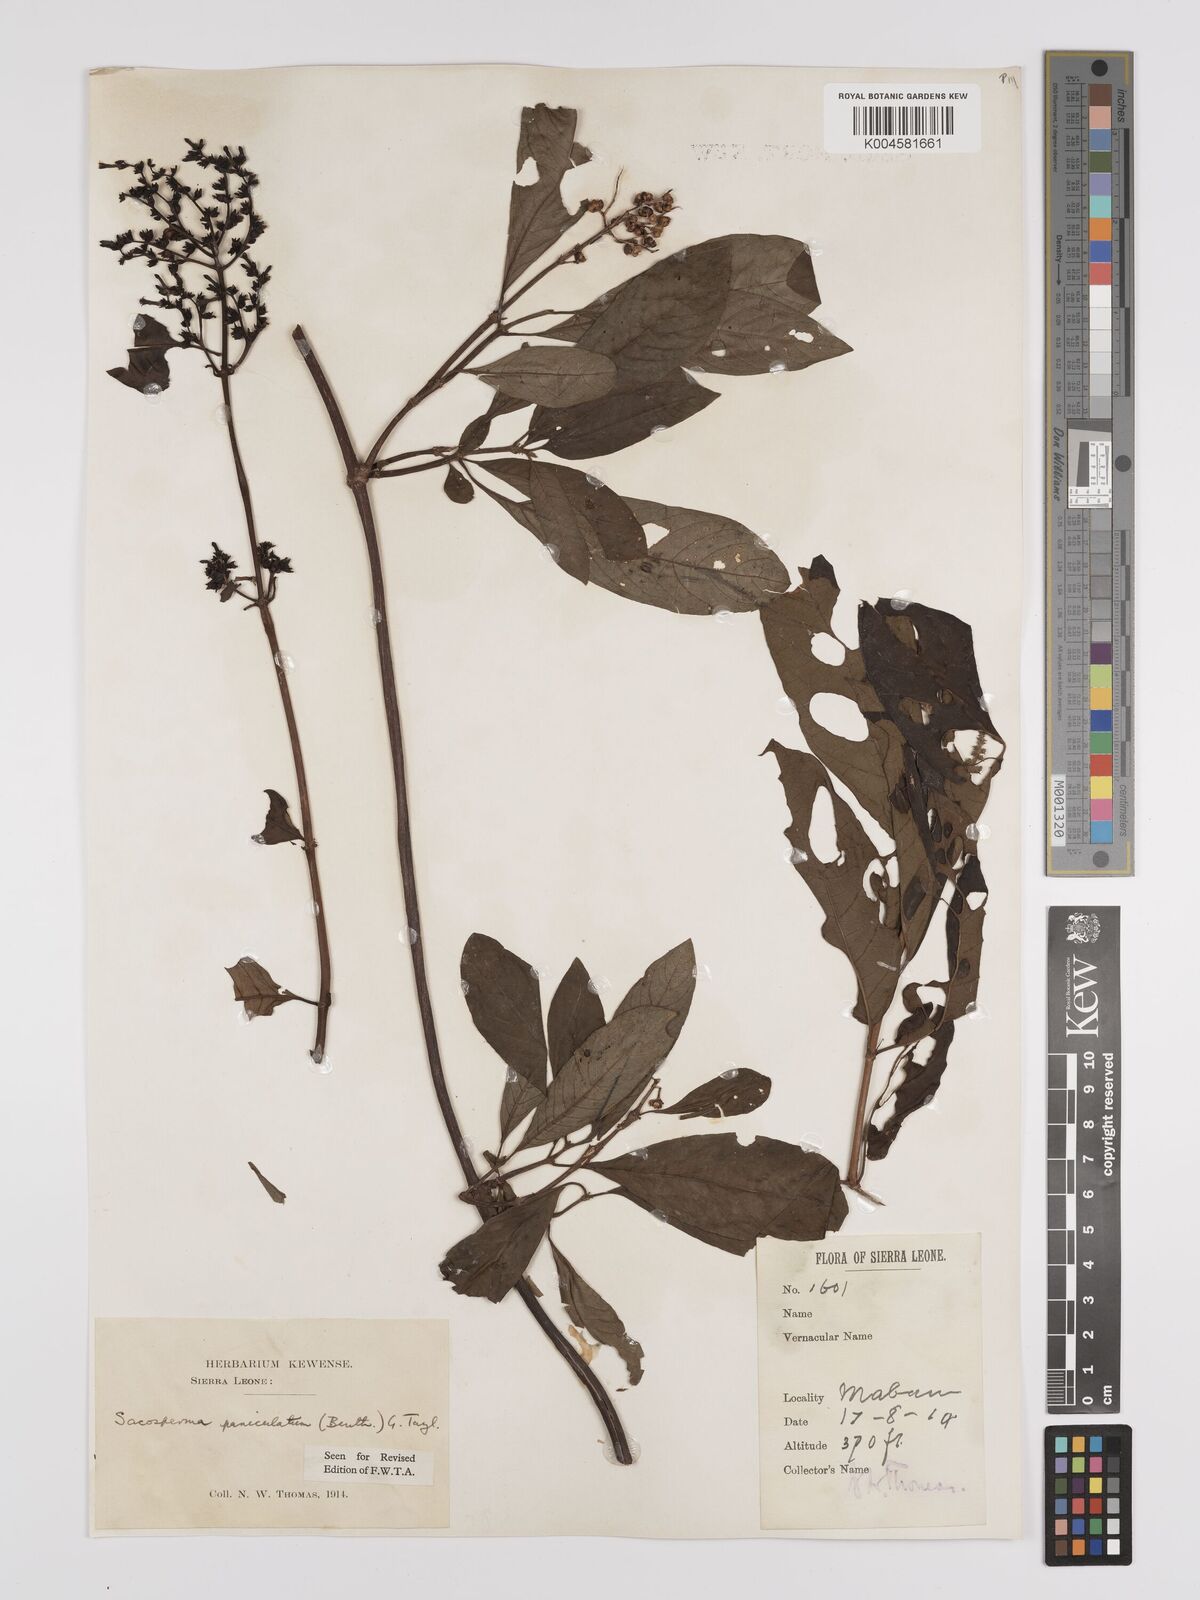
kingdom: Plantae
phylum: Tracheophyta
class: Magnoliopsida
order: Gentianales
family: Rubiaceae
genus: Sacosperma
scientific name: Sacosperma paniculatum
